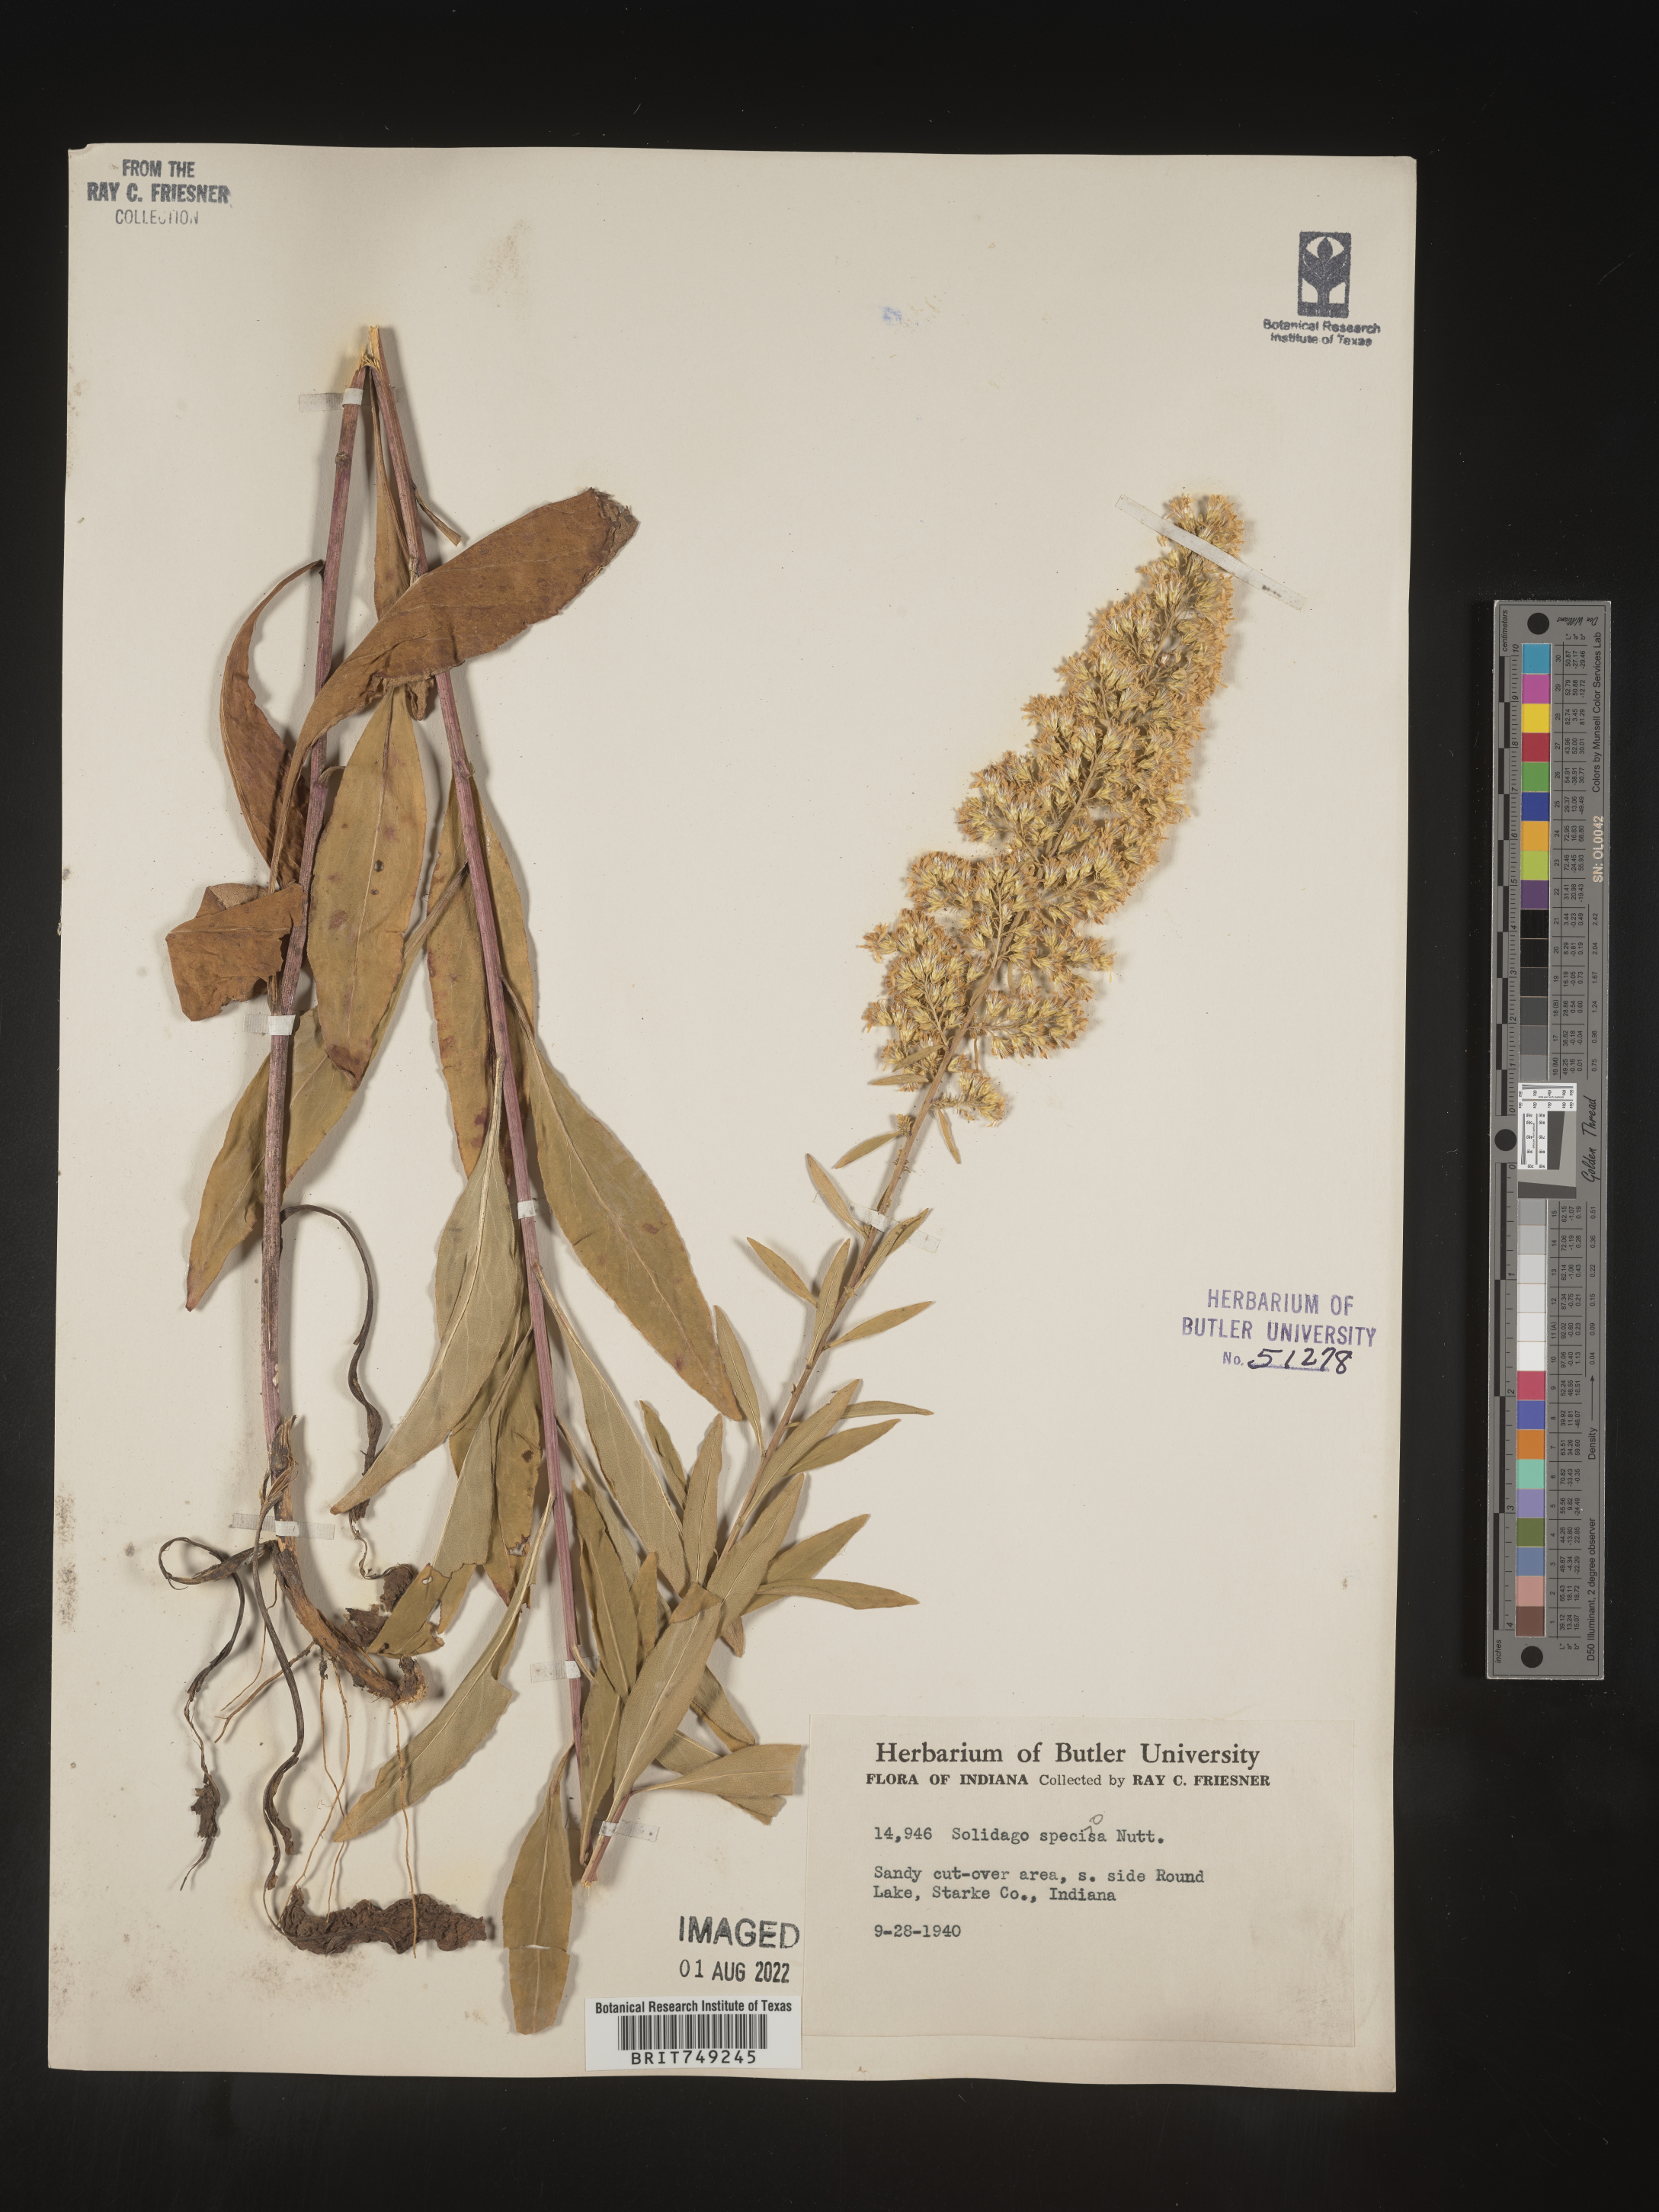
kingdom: Plantae
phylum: Tracheophyta
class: Magnoliopsida
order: Asterales
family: Asteraceae
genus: Solidago
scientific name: Solidago speciosa
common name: Showy goldenrod
